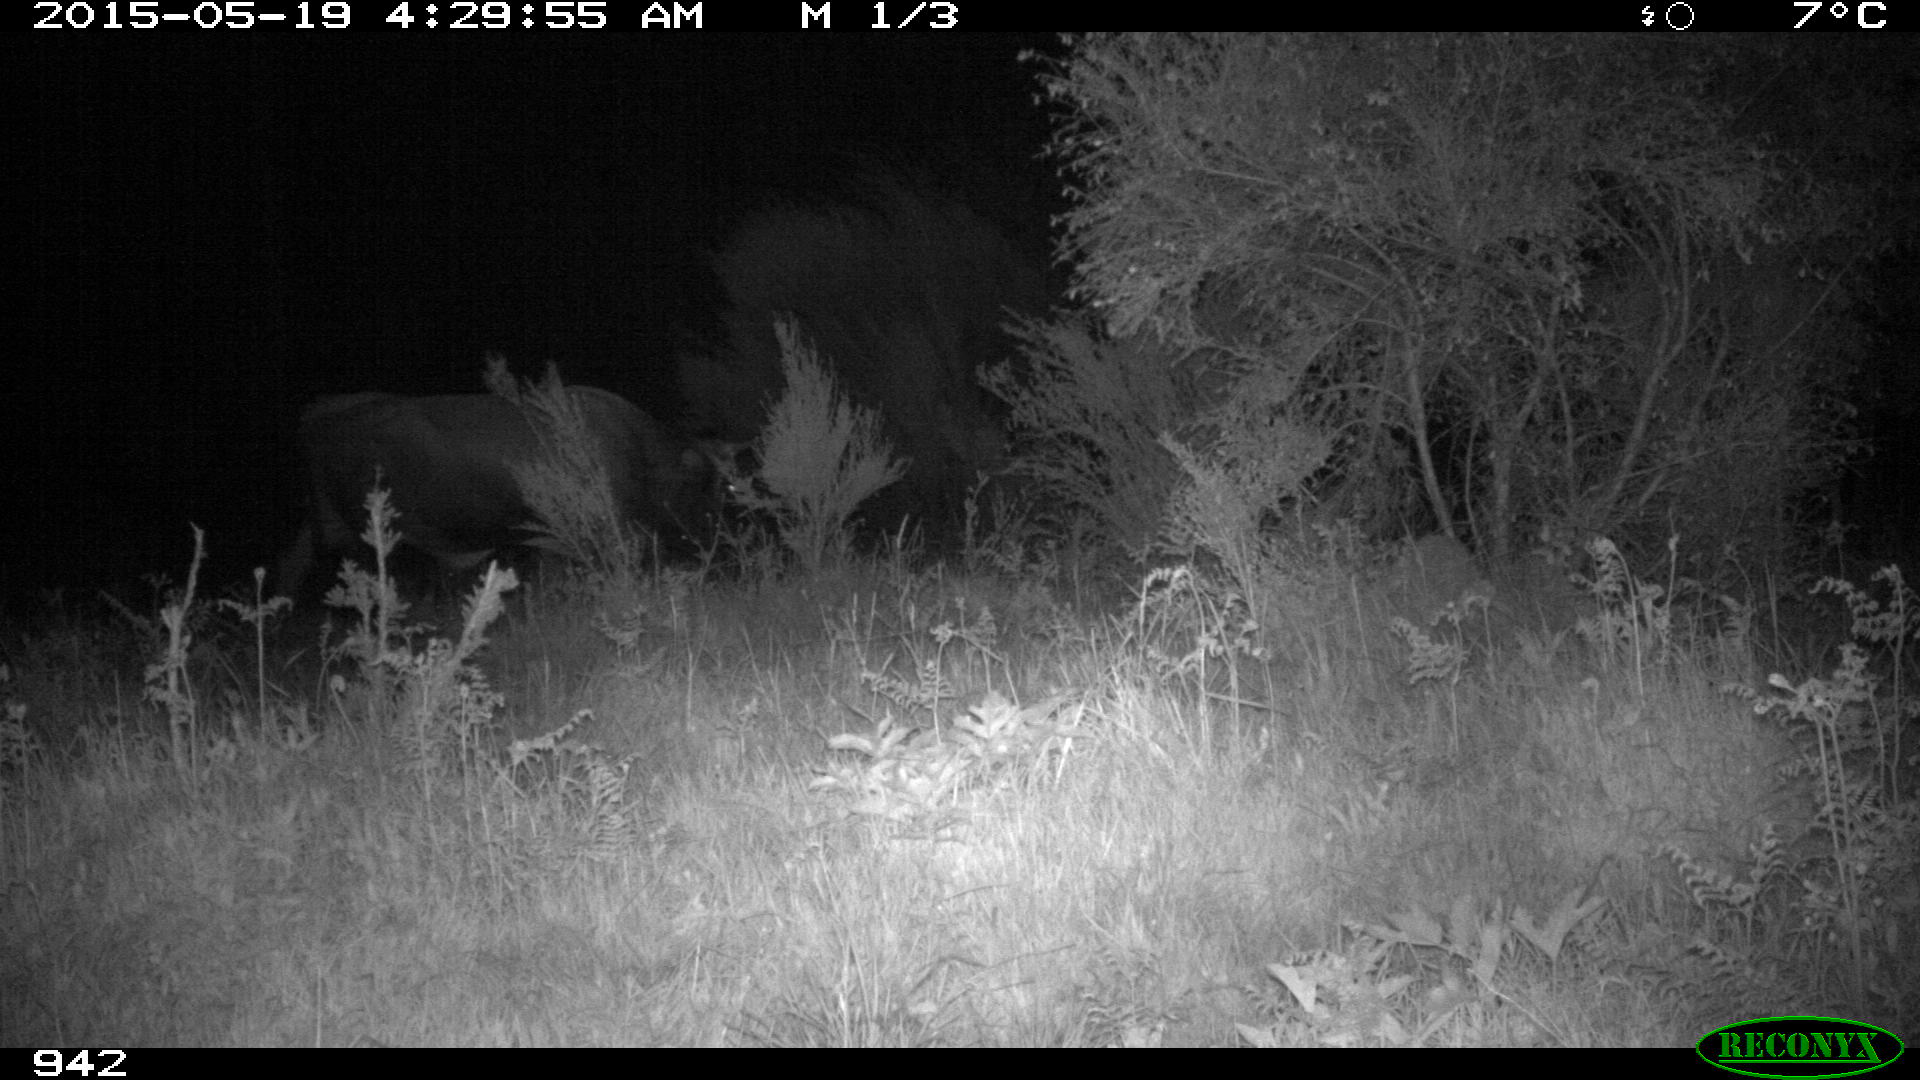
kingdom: Animalia
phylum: Chordata
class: Mammalia
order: Artiodactyla
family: Bovidae
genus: Bos
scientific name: Bos taurus
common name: Domesticated cattle
